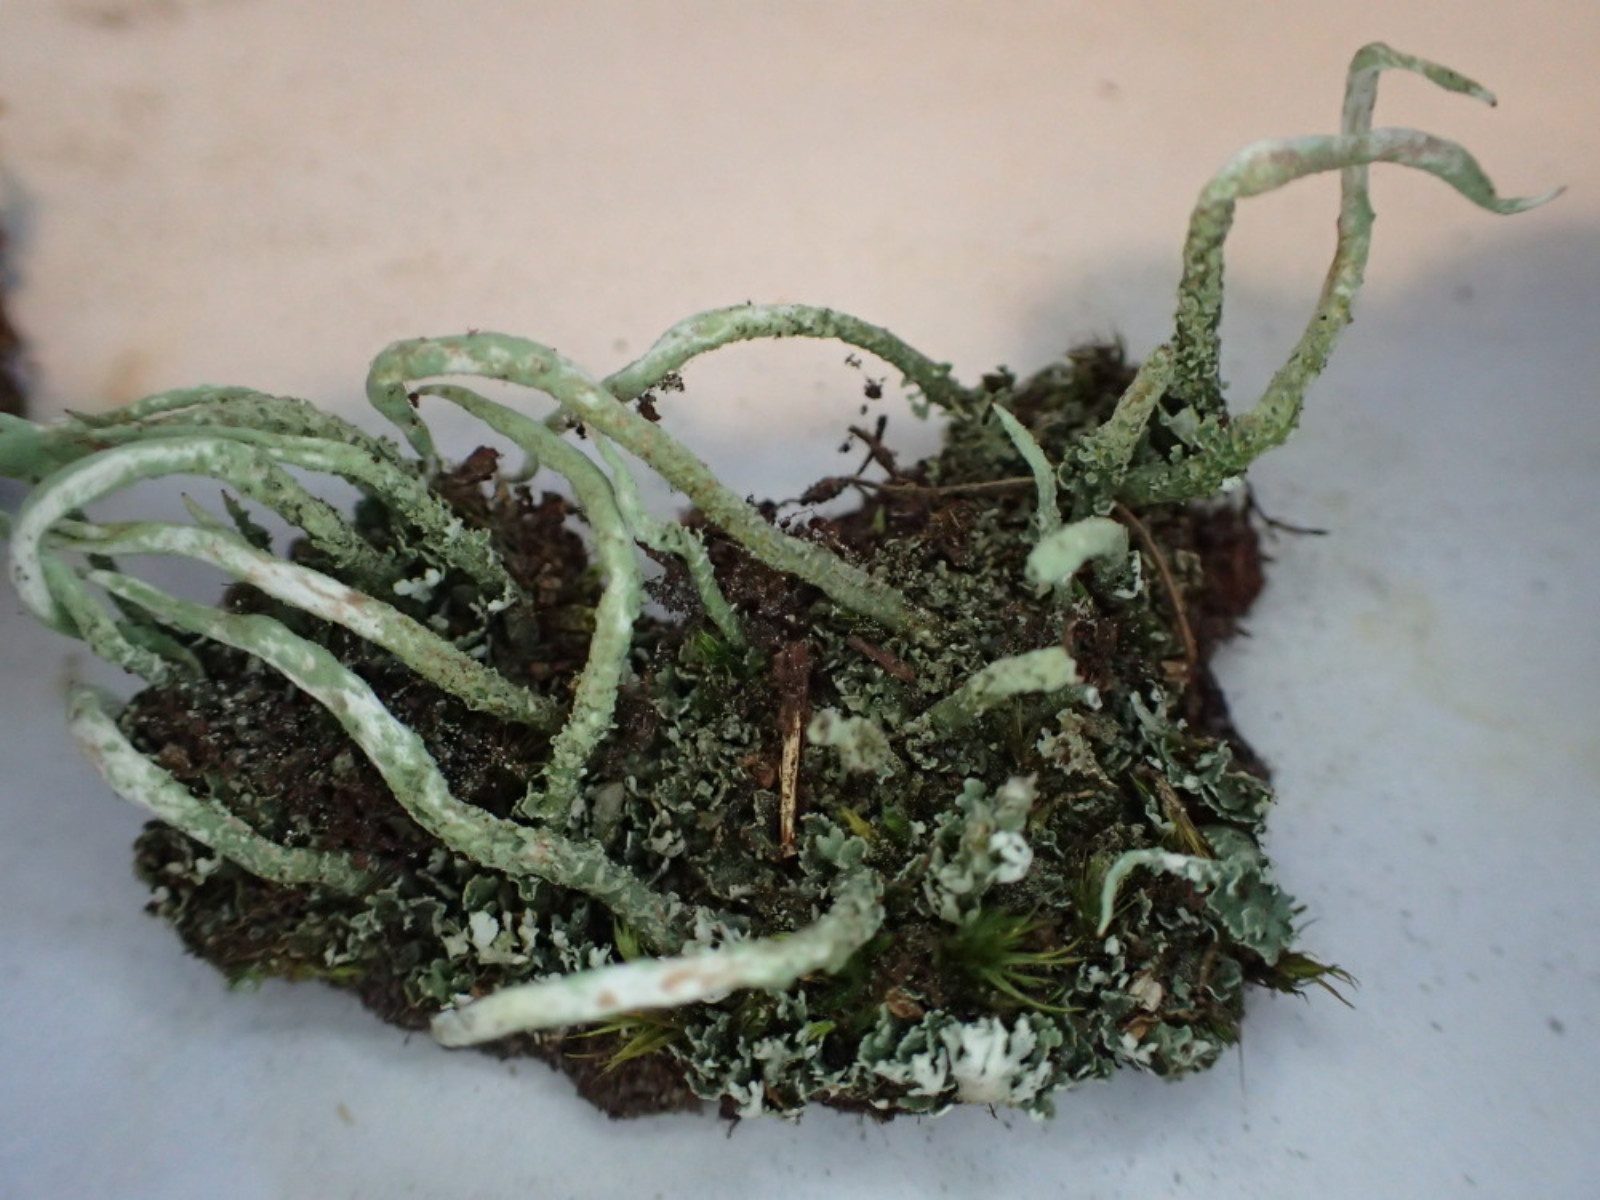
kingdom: Fungi
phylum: Ascomycota
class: Lecanoromycetes
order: Lecanorales
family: Cladoniaceae
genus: Cladonia
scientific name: Cladonia glauca
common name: grågrøn bægerlav
